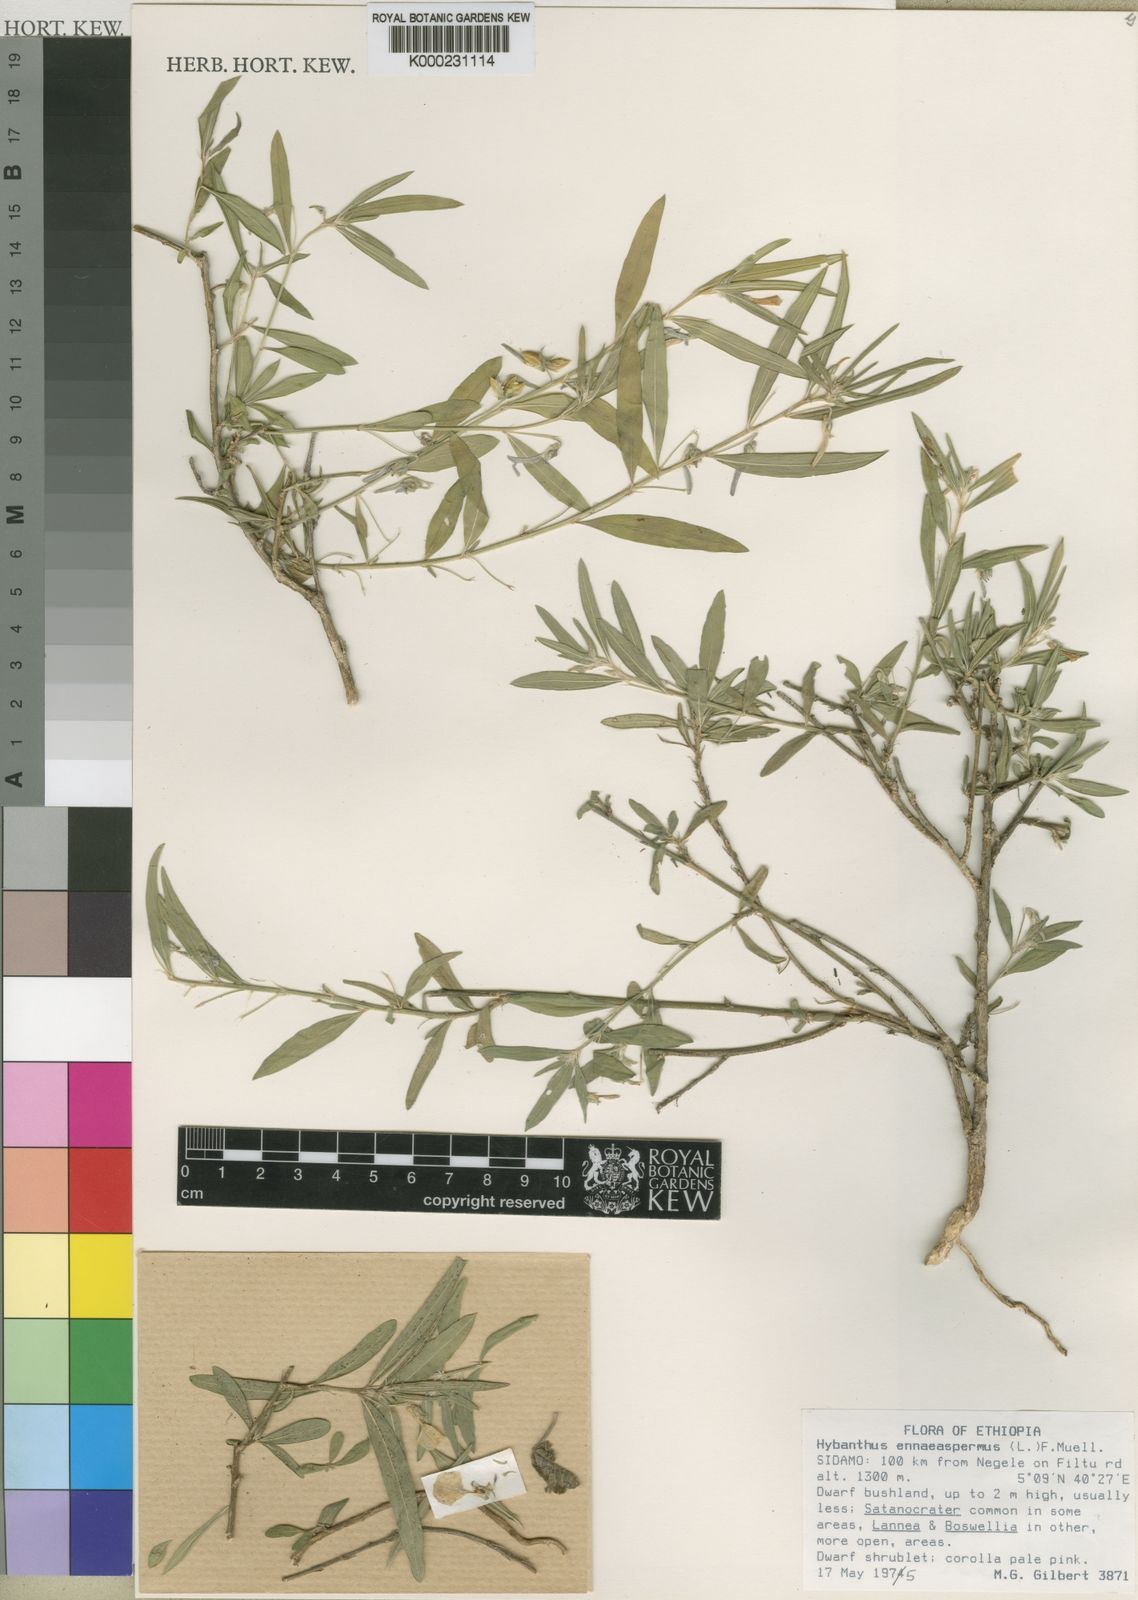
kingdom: Plantae
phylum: Tracheophyta
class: Magnoliopsida
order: Malpighiales
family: Violaceae
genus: Pigea
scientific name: Pigea puberula
